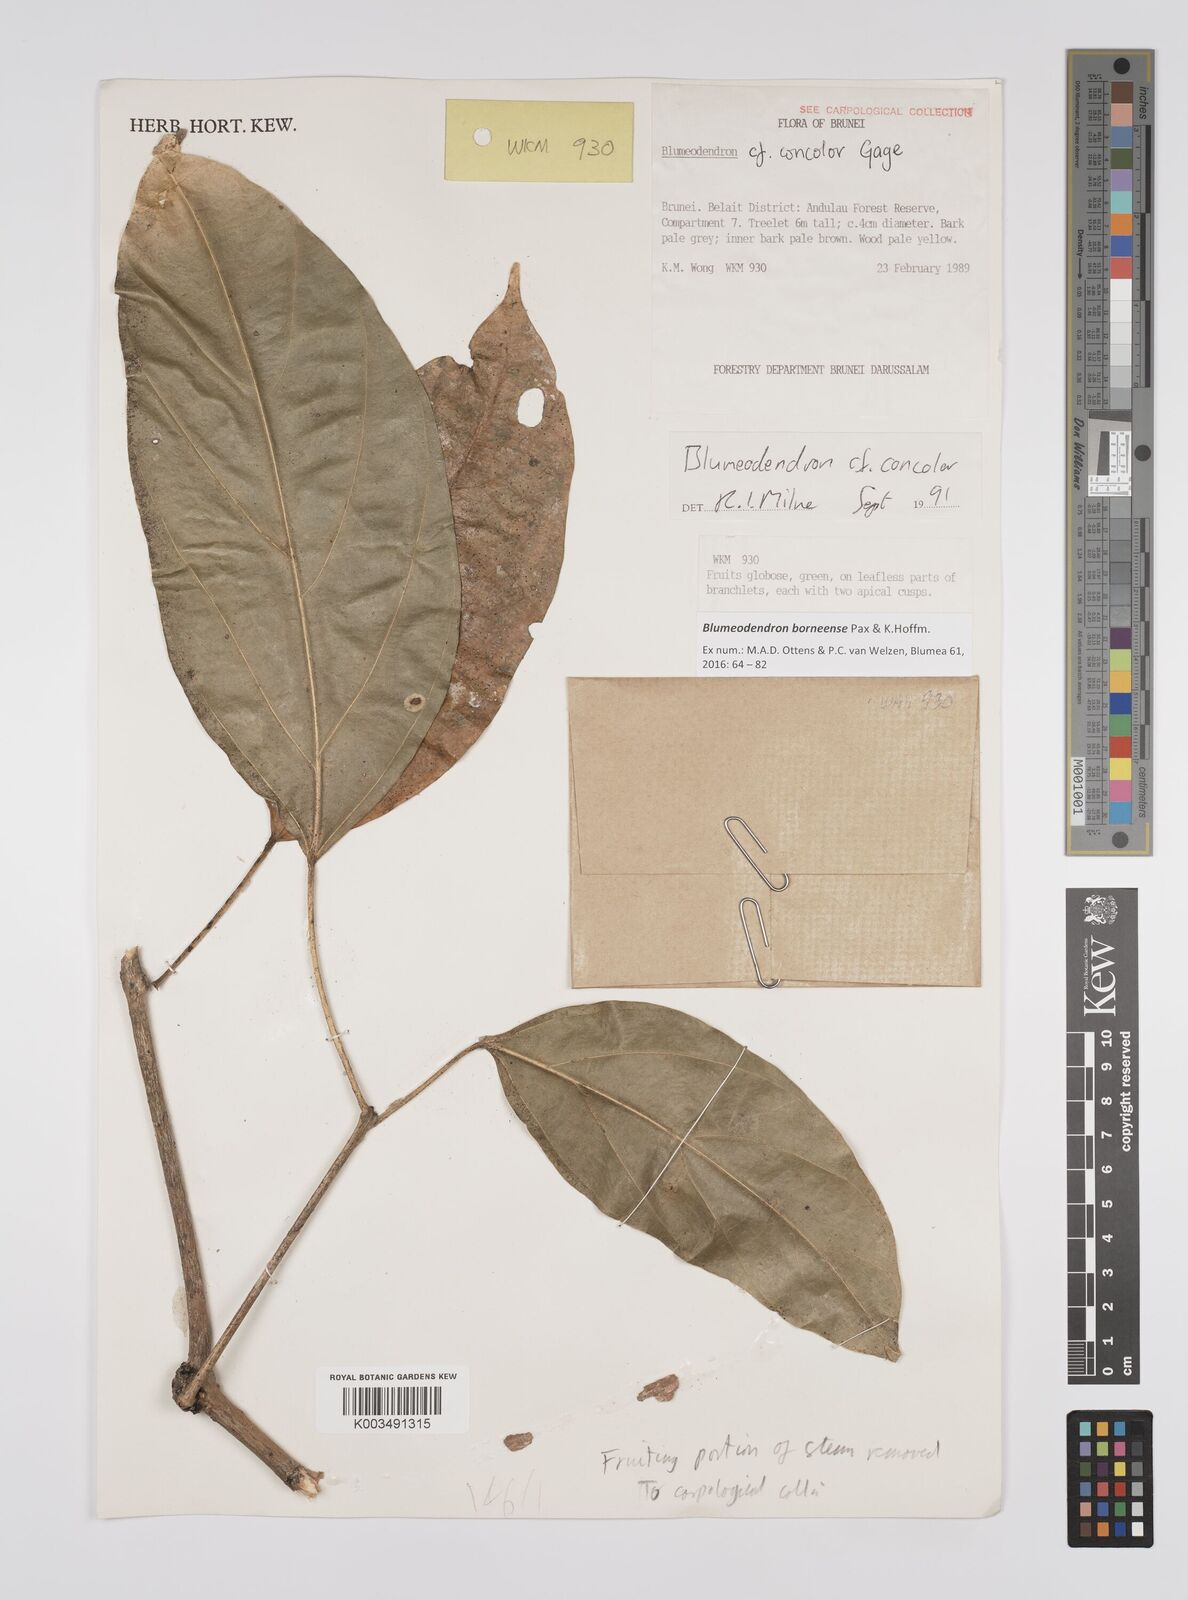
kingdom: Plantae
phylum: Tracheophyta
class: Magnoliopsida
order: Malpighiales
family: Euphorbiaceae
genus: Blumeodendron
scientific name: Blumeodendron borneense
